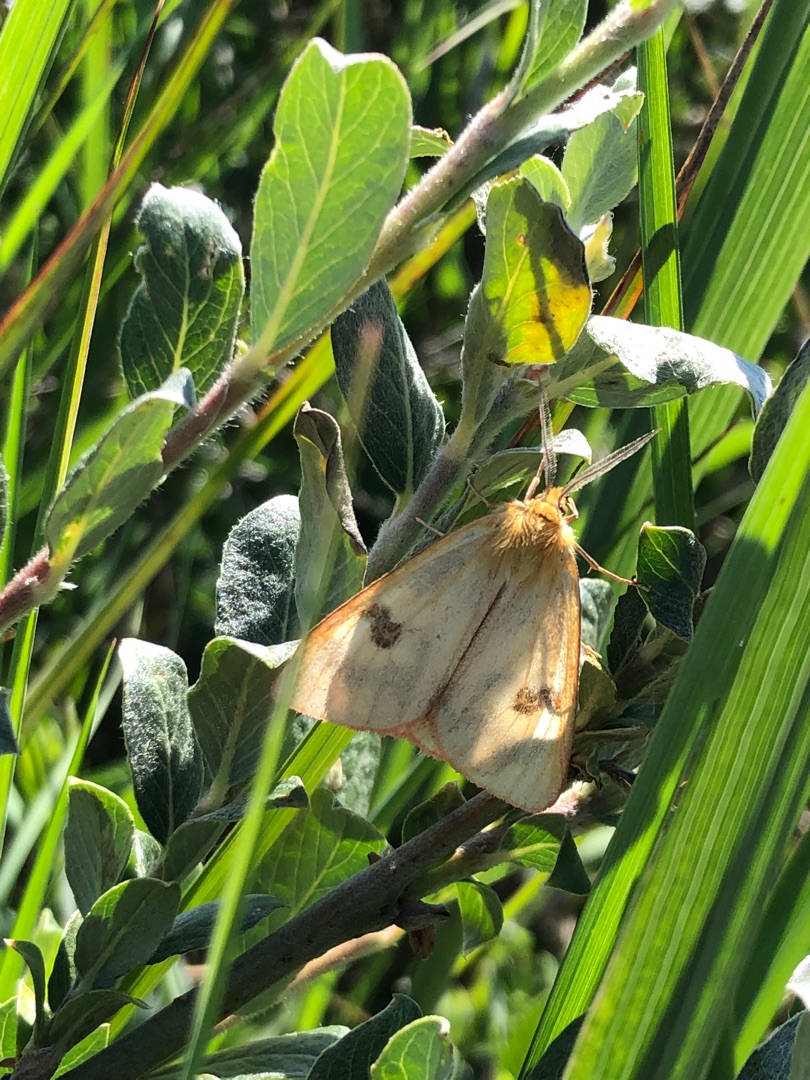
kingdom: Animalia
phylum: Arthropoda
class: Insecta
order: Lepidoptera
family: Erebidae
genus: Diacrisia
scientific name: Diacrisia sannio
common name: Rødfrynset bjørn
